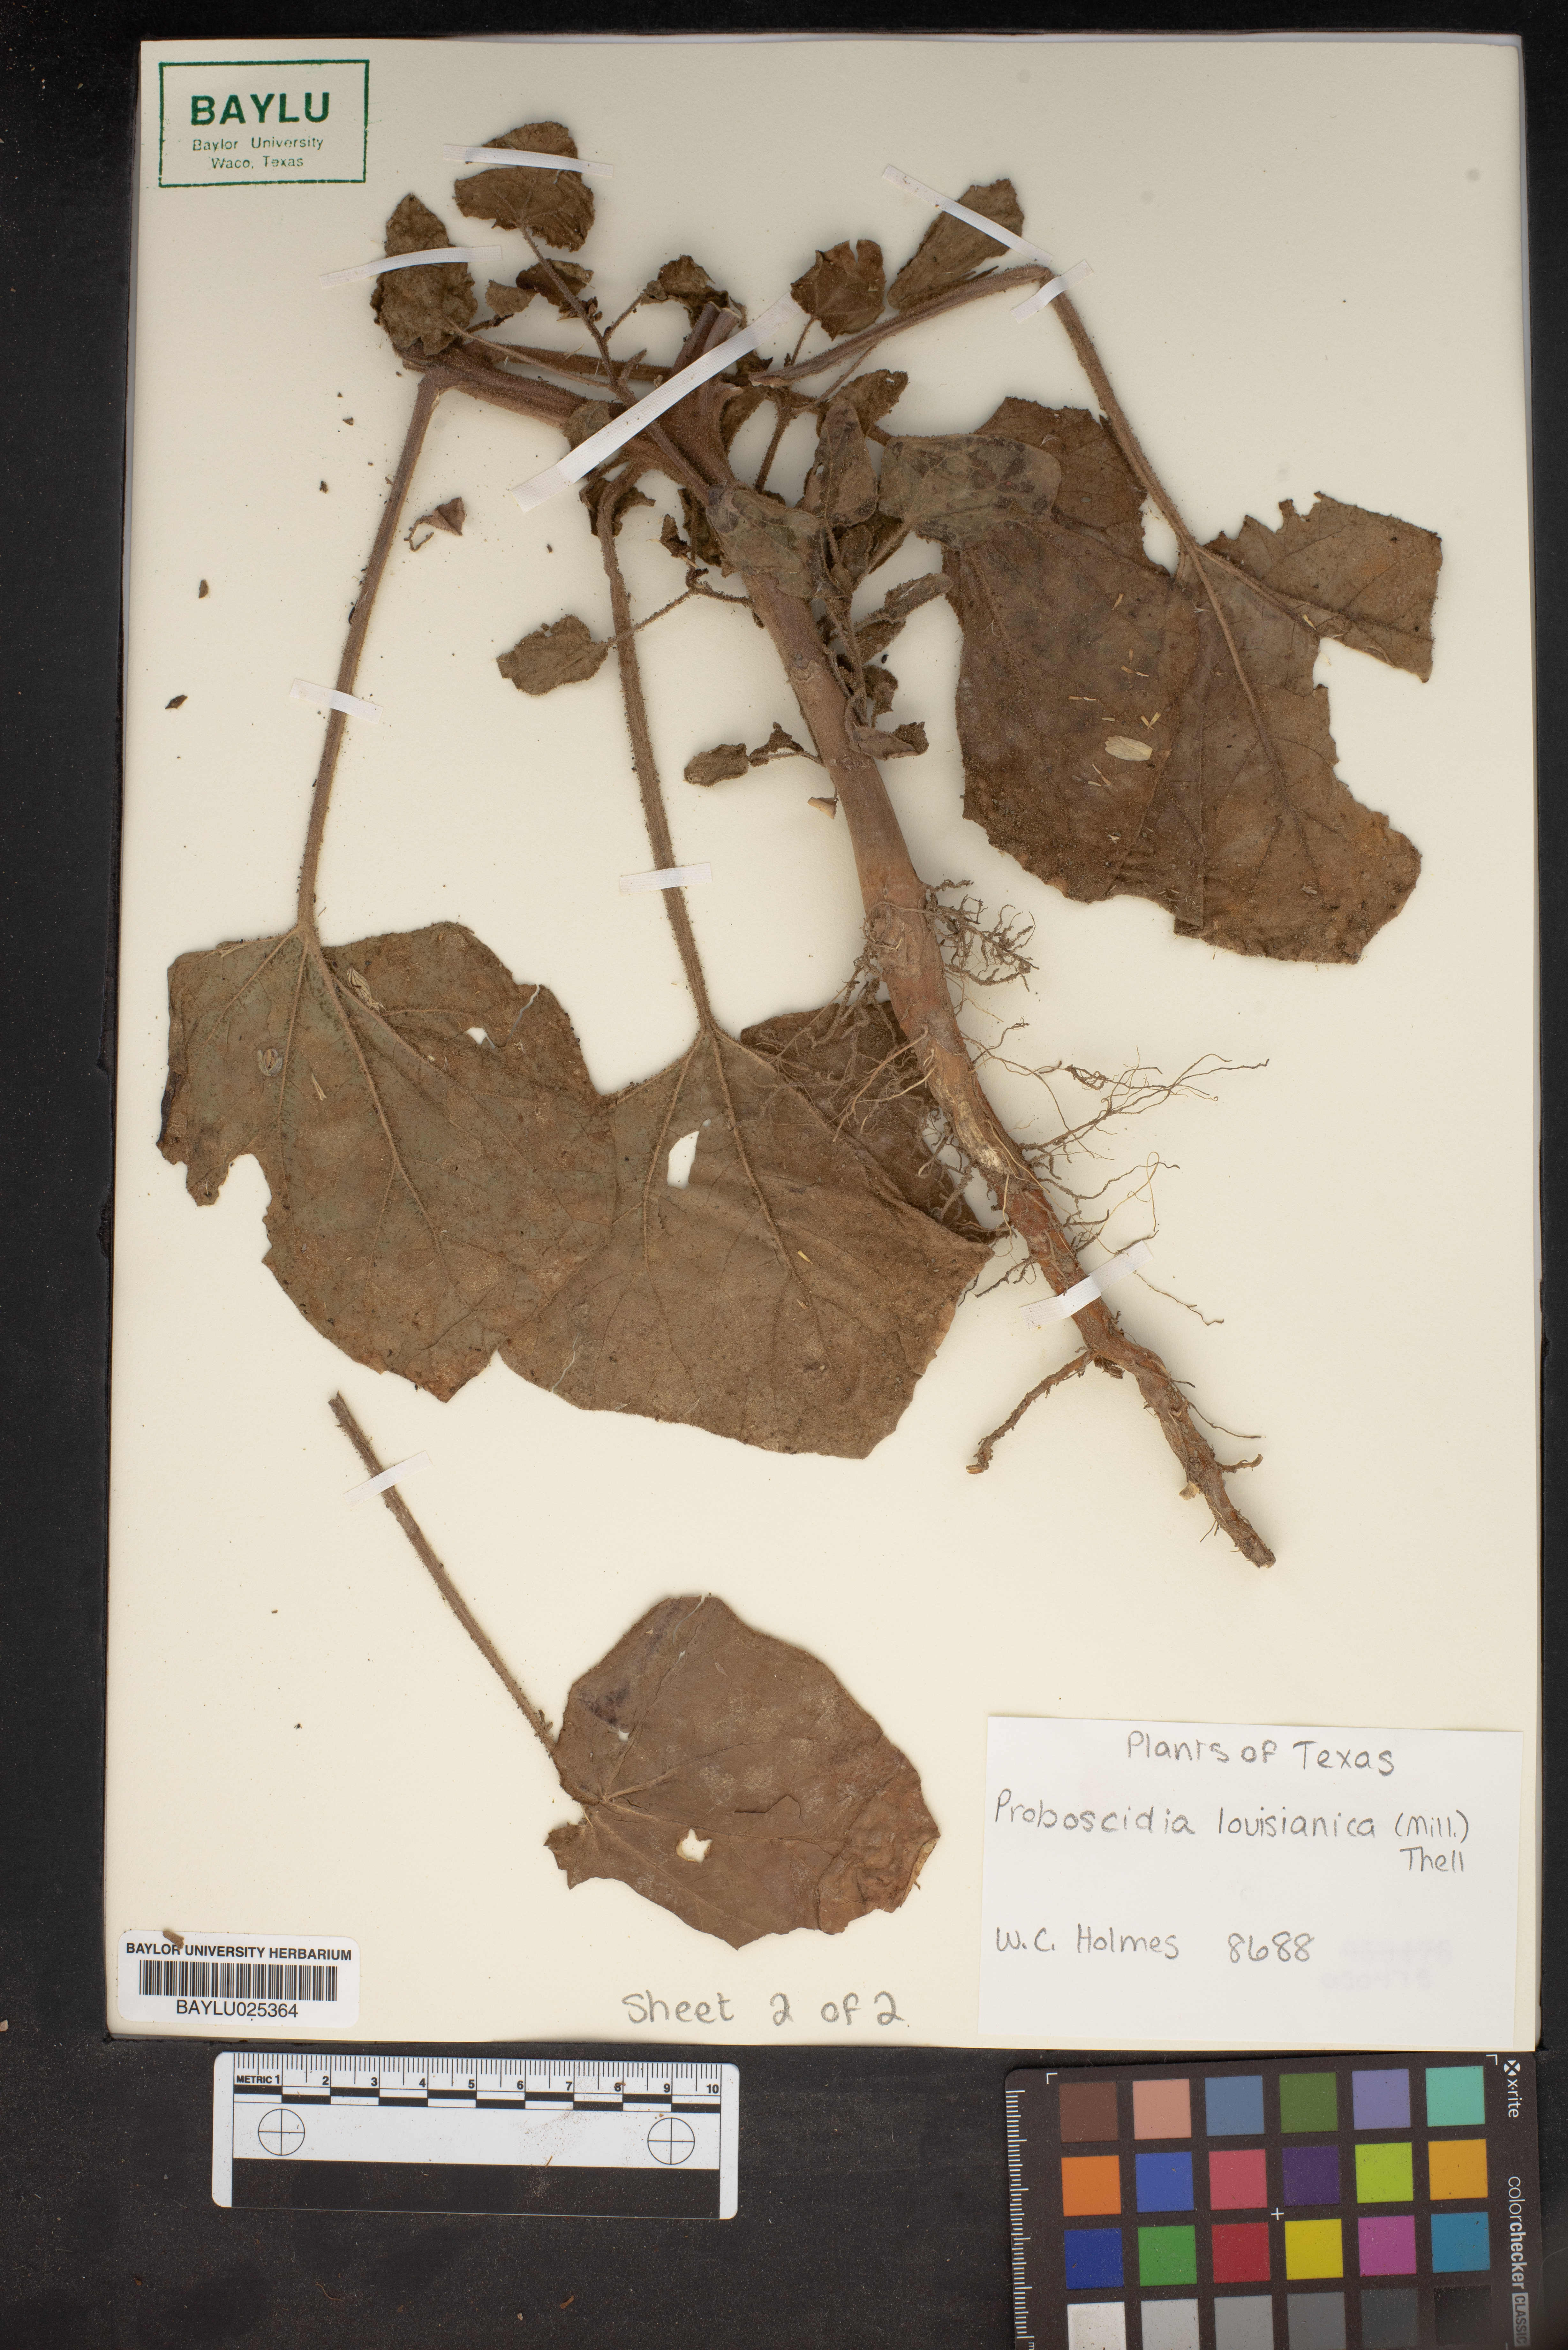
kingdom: Plantae
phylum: Tracheophyta
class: Magnoliopsida
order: Lamiales
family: Martyniaceae
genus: Proboscidea
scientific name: Proboscidea louisianica
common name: Elephant tusks
